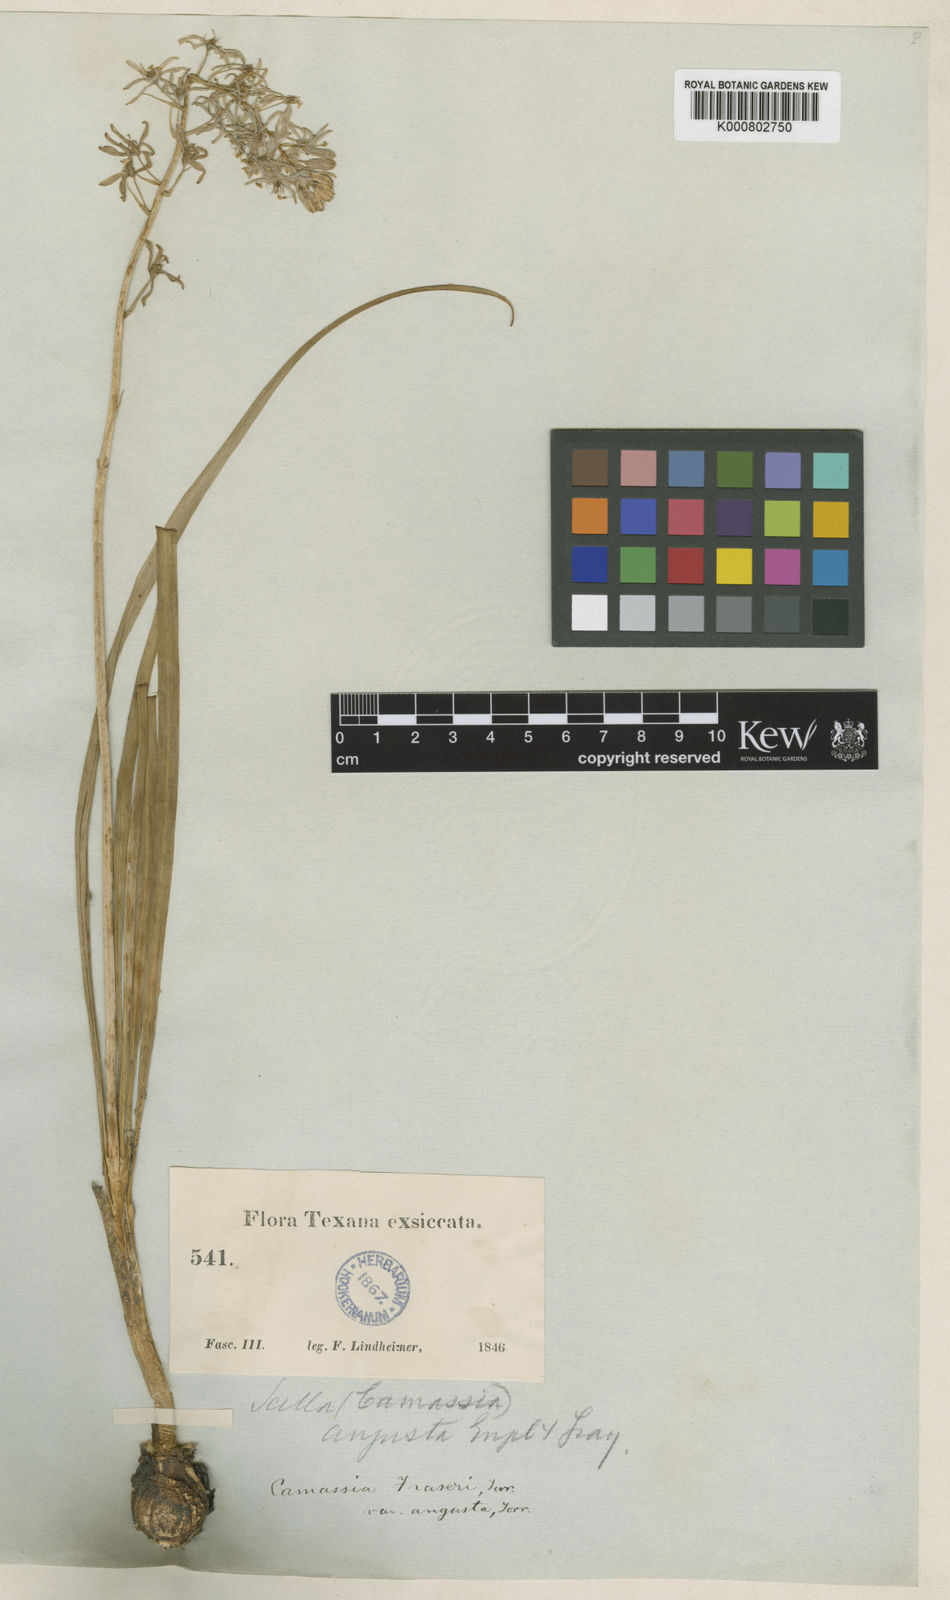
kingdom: Plantae
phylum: Tracheophyta
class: Liliopsida
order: Asparagales
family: Asparagaceae
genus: Camassia
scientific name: Camassia
